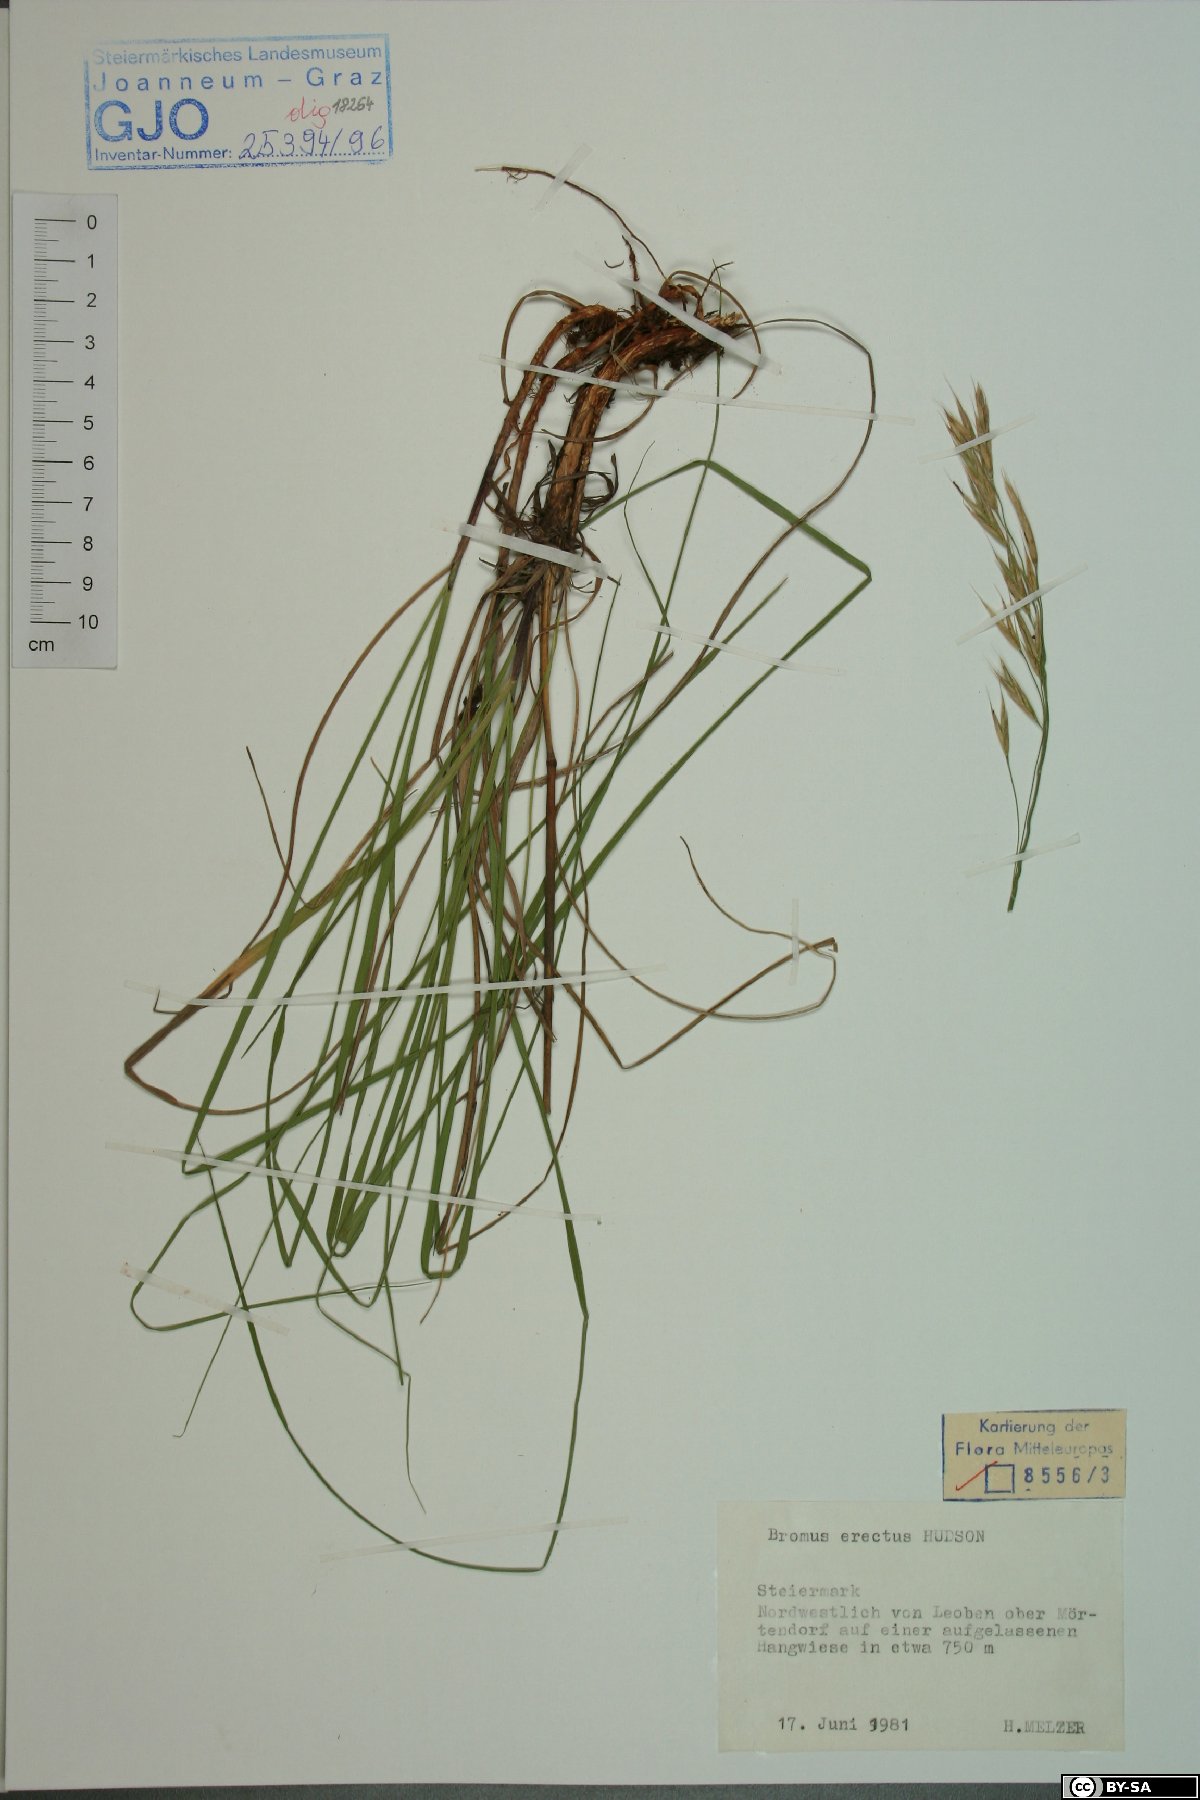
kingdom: Plantae
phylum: Tracheophyta
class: Liliopsida
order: Poales
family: Poaceae
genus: Bromus
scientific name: Bromus erectus
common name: Erect brome
